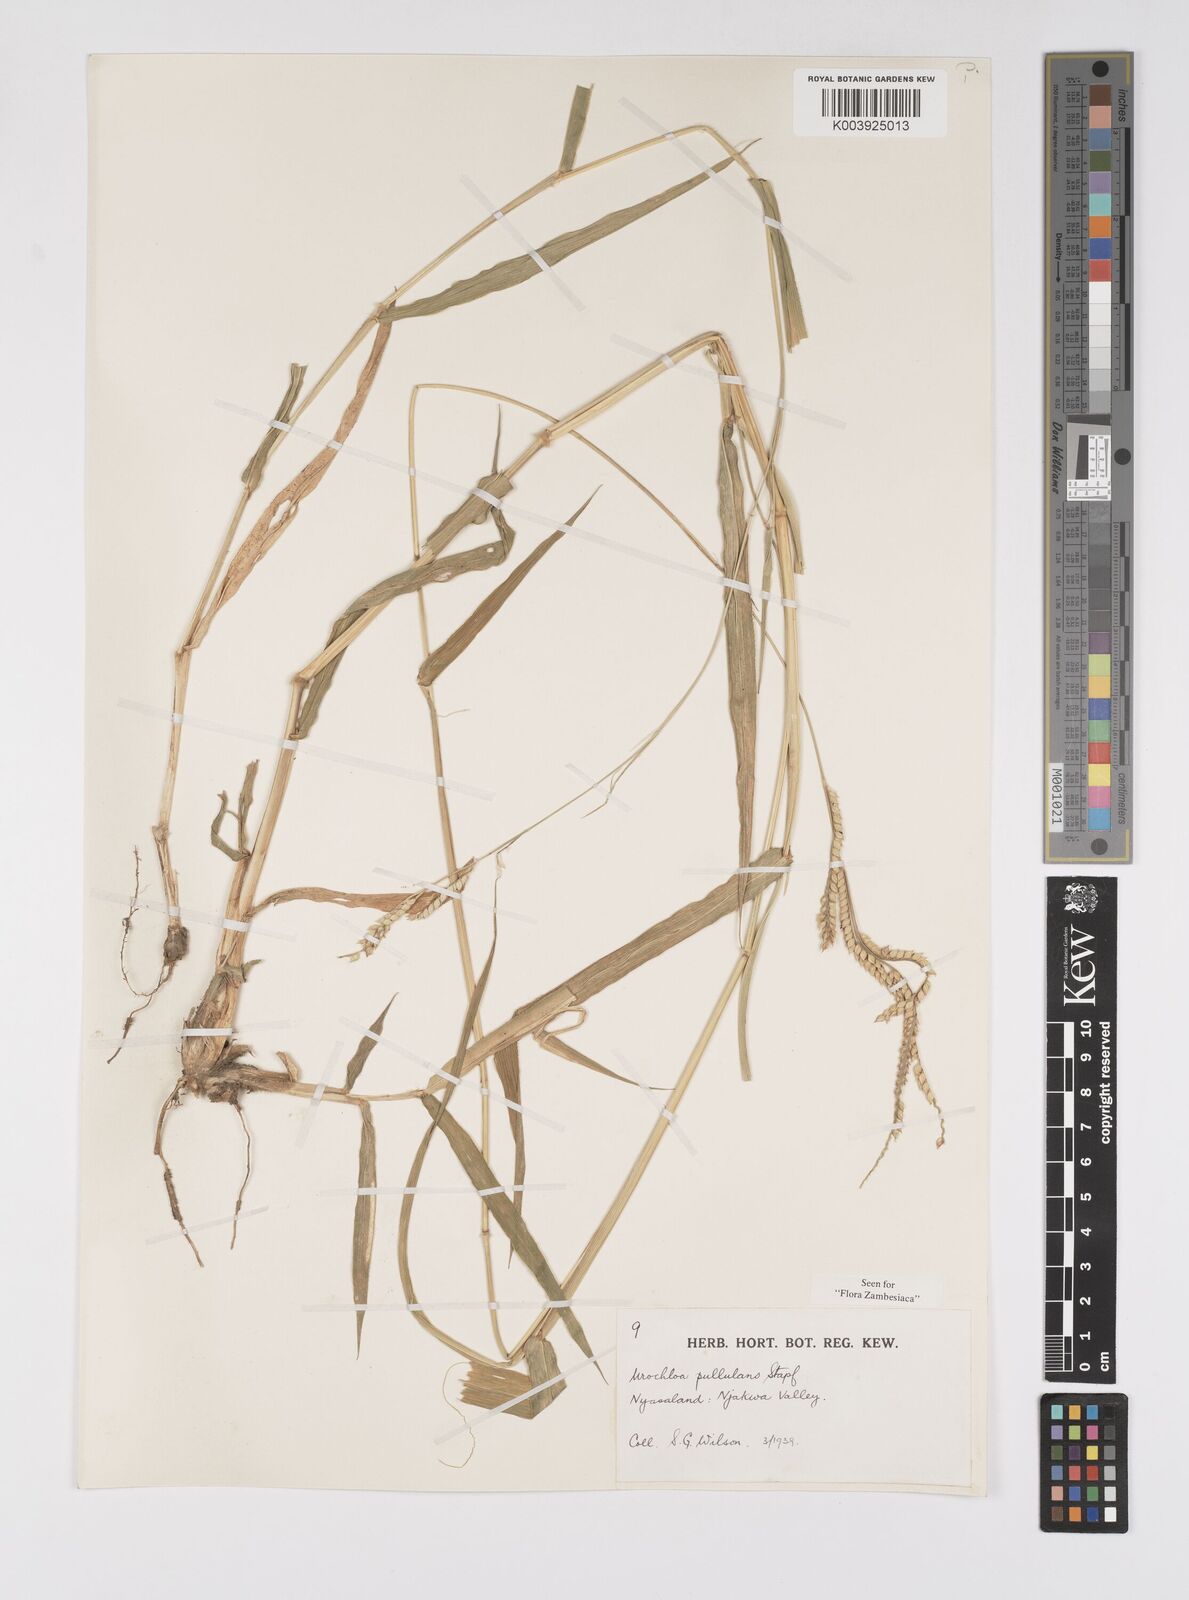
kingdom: Plantae
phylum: Tracheophyta
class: Liliopsida
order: Poales
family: Poaceae
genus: Urochloa
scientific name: Urochloa trichopus
